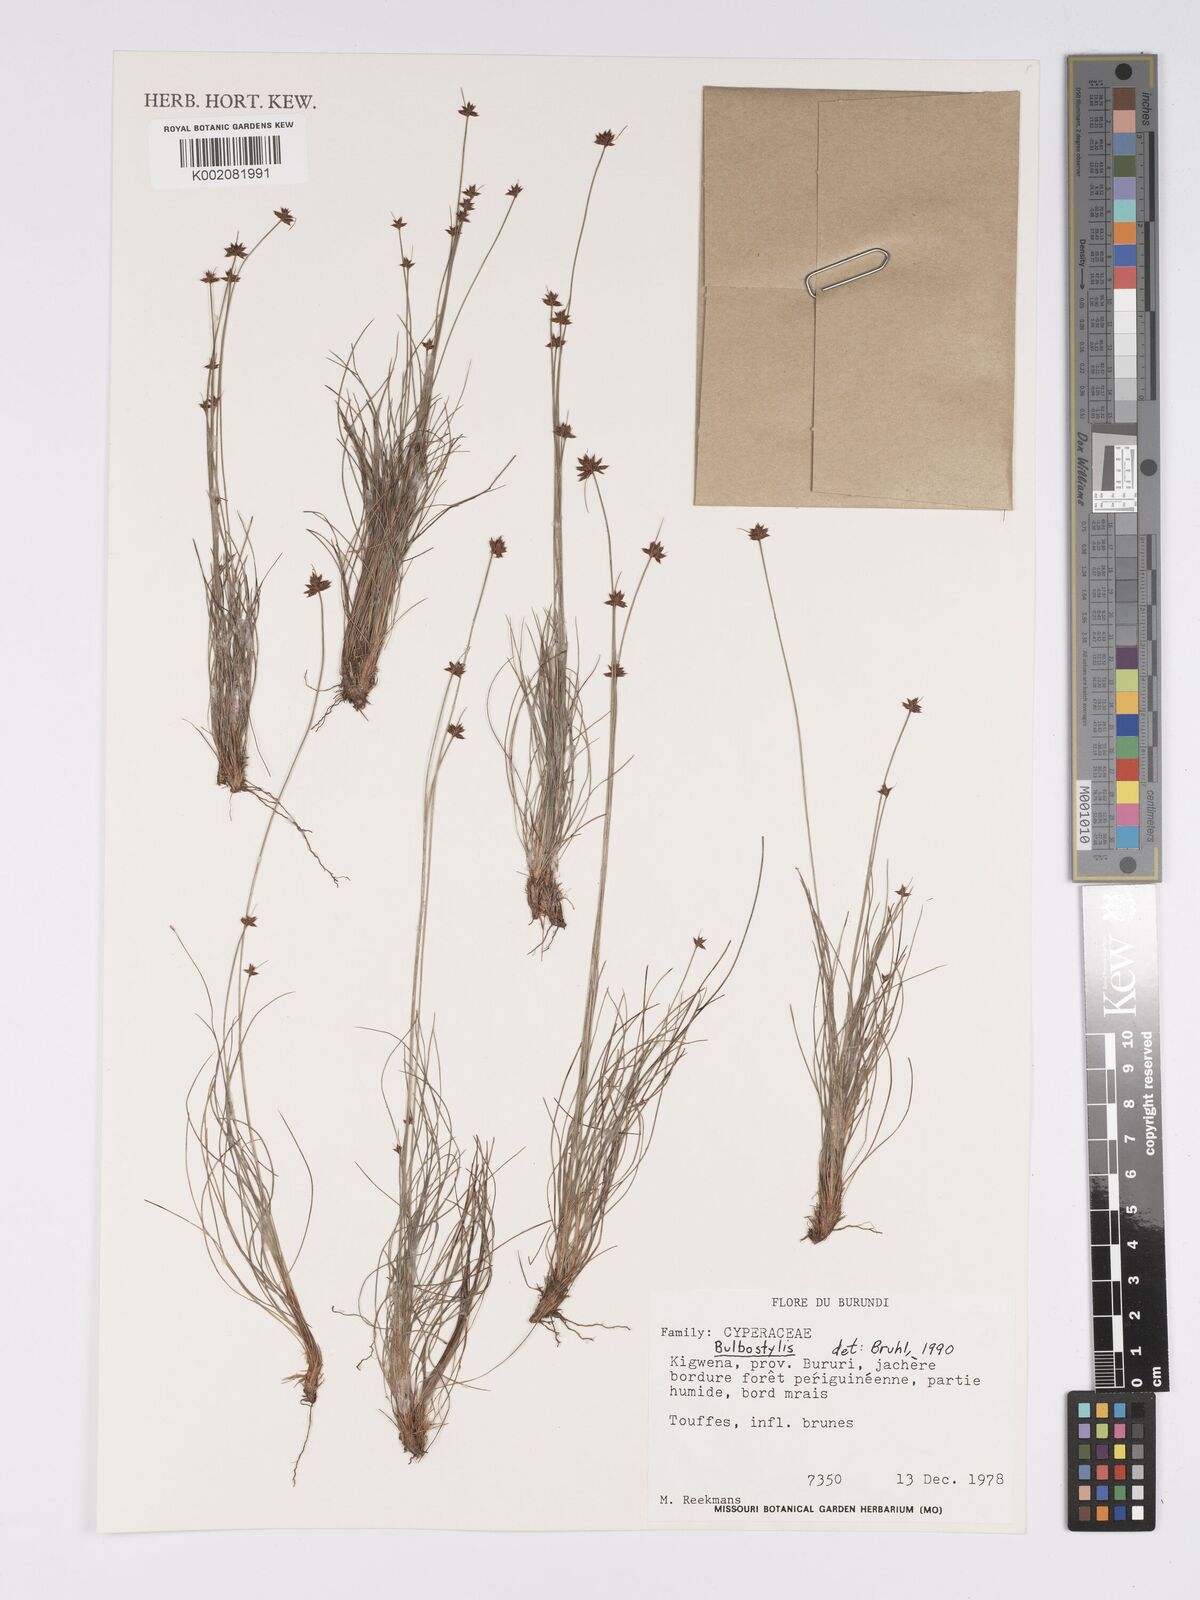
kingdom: Plantae
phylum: Tracheophyta
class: Magnoliopsida
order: Asterales
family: Asteraceae
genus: Bulbostylis
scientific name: Bulbostylis
